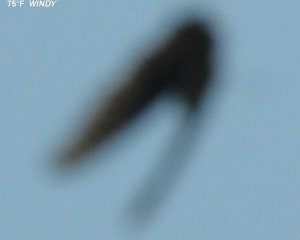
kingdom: Animalia
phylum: Arthropoda
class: Insecta
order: Lepidoptera
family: Nymphalidae
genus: Nymphalis
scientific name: Nymphalis antiopa
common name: Mourning Cloak
